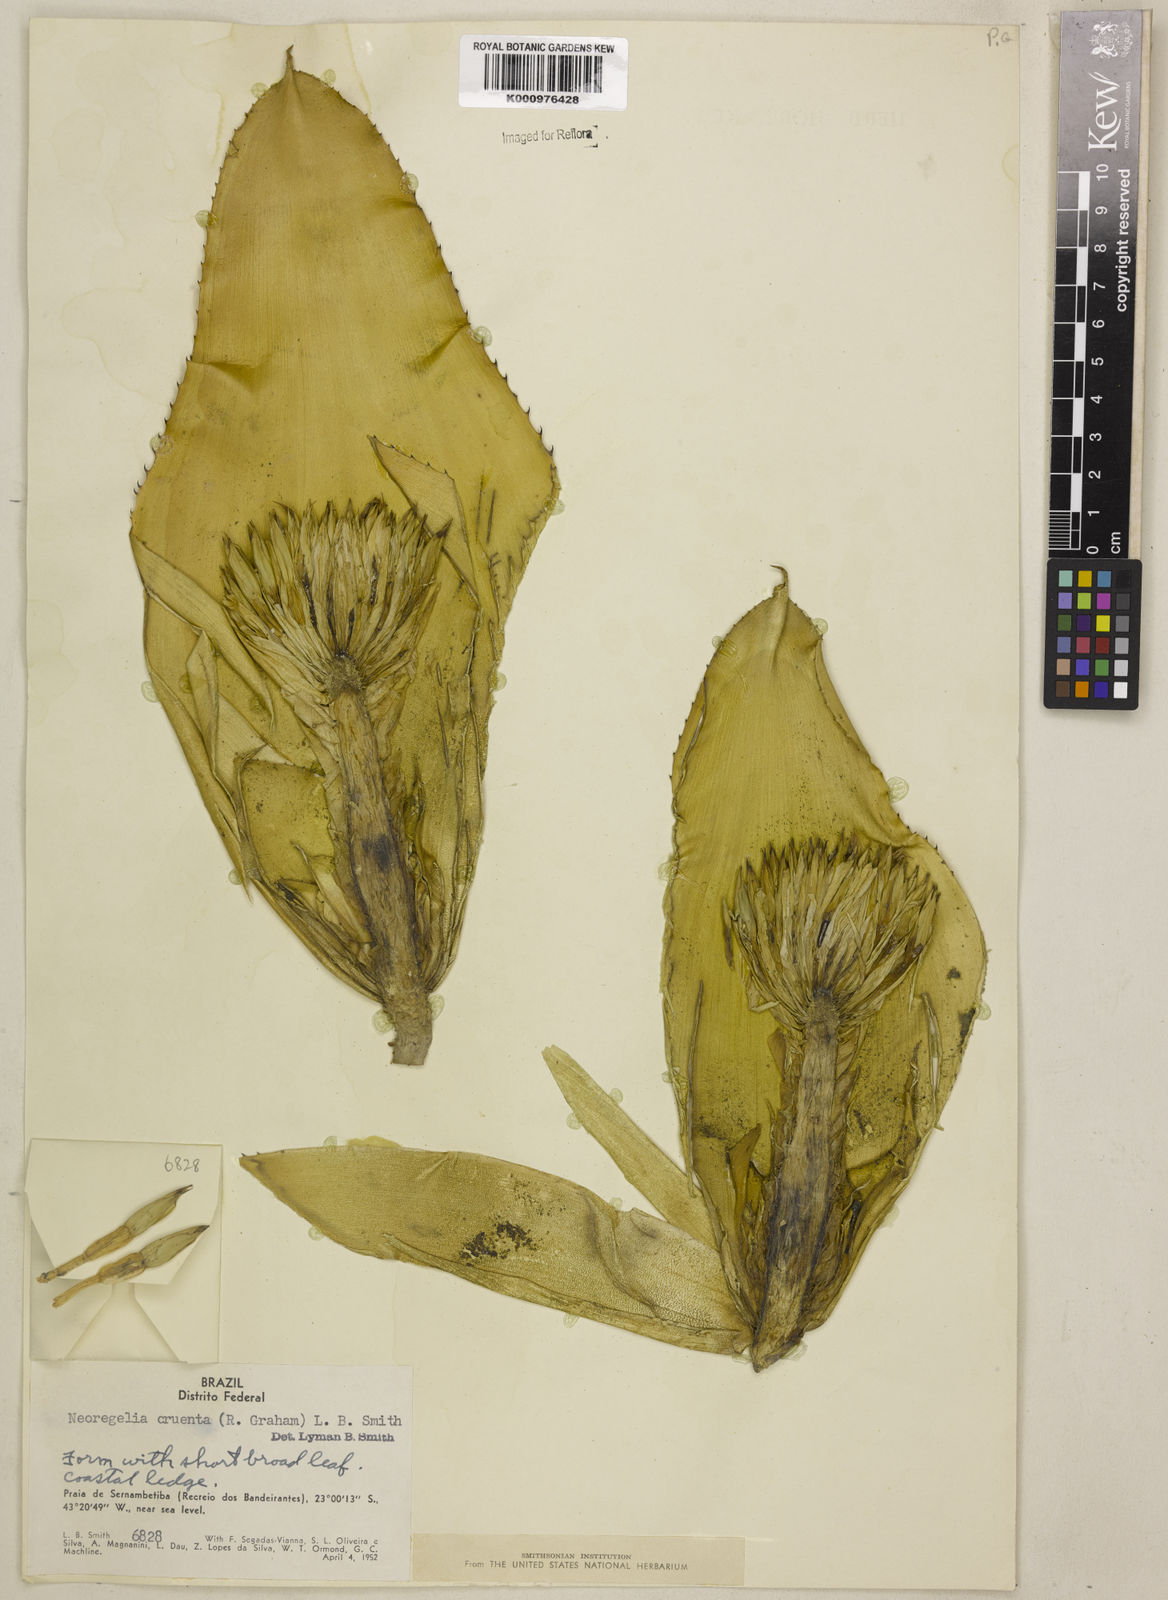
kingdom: Plantae
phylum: Tracheophyta
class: Liliopsida
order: Poales
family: Bromeliaceae
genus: Neoregelia
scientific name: Neoregelia cruenta
